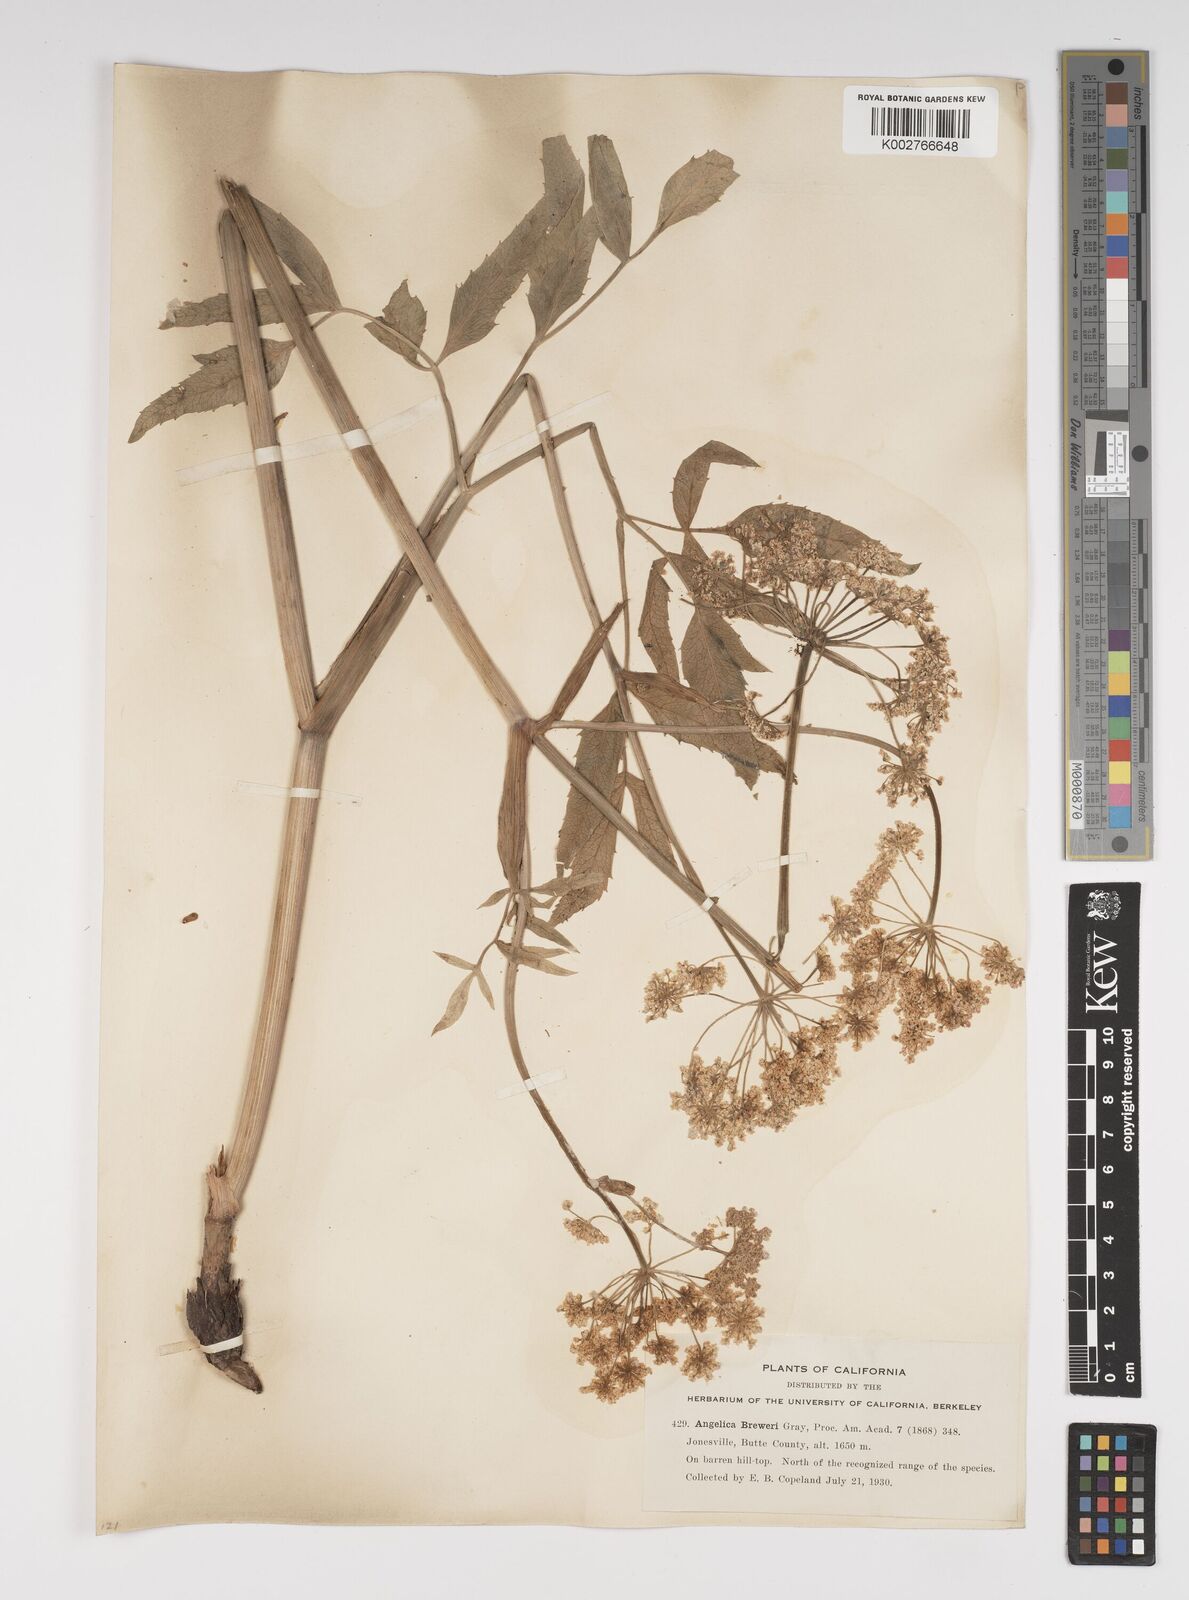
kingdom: Plantae
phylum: Tracheophyta
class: Magnoliopsida
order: Apiales
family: Apiaceae
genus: Angelica
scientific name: Angelica breweri
